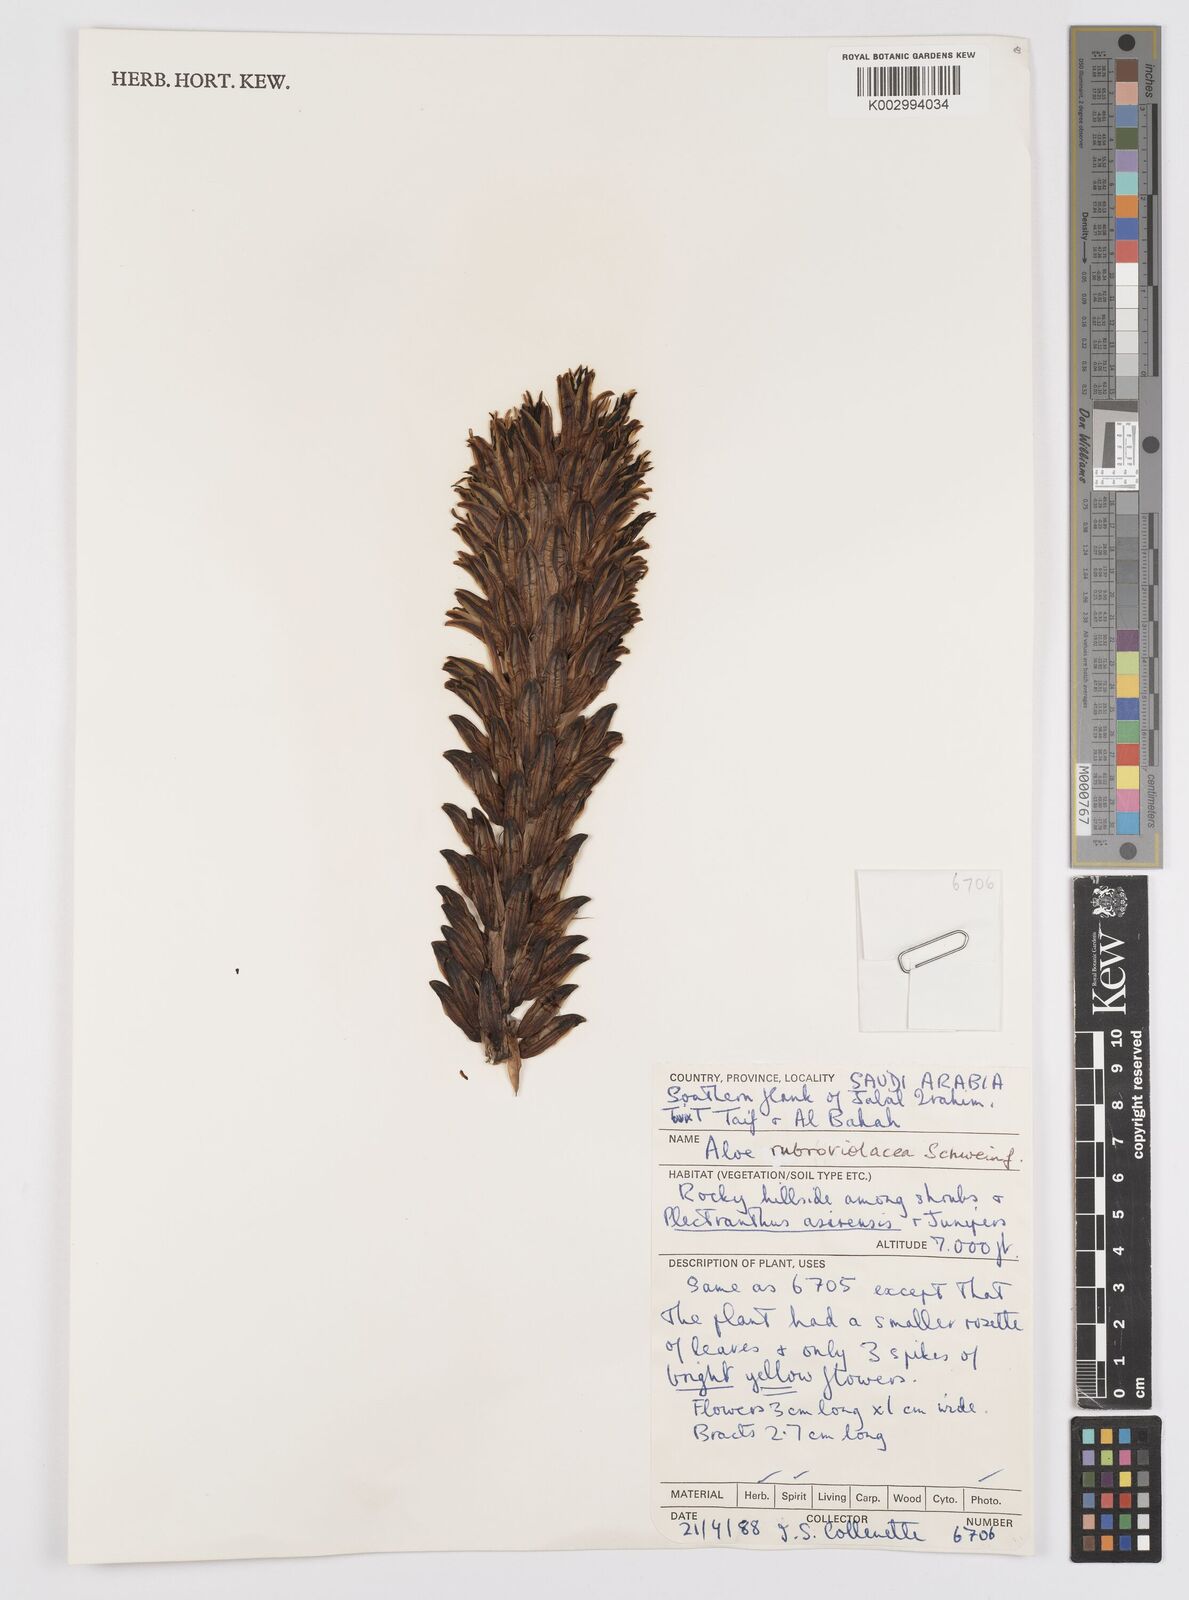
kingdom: Plantae
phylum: Tracheophyta
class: Liliopsida
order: Asparagales
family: Asphodelaceae
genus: Aloe
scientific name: Aloe rubroviolacea
